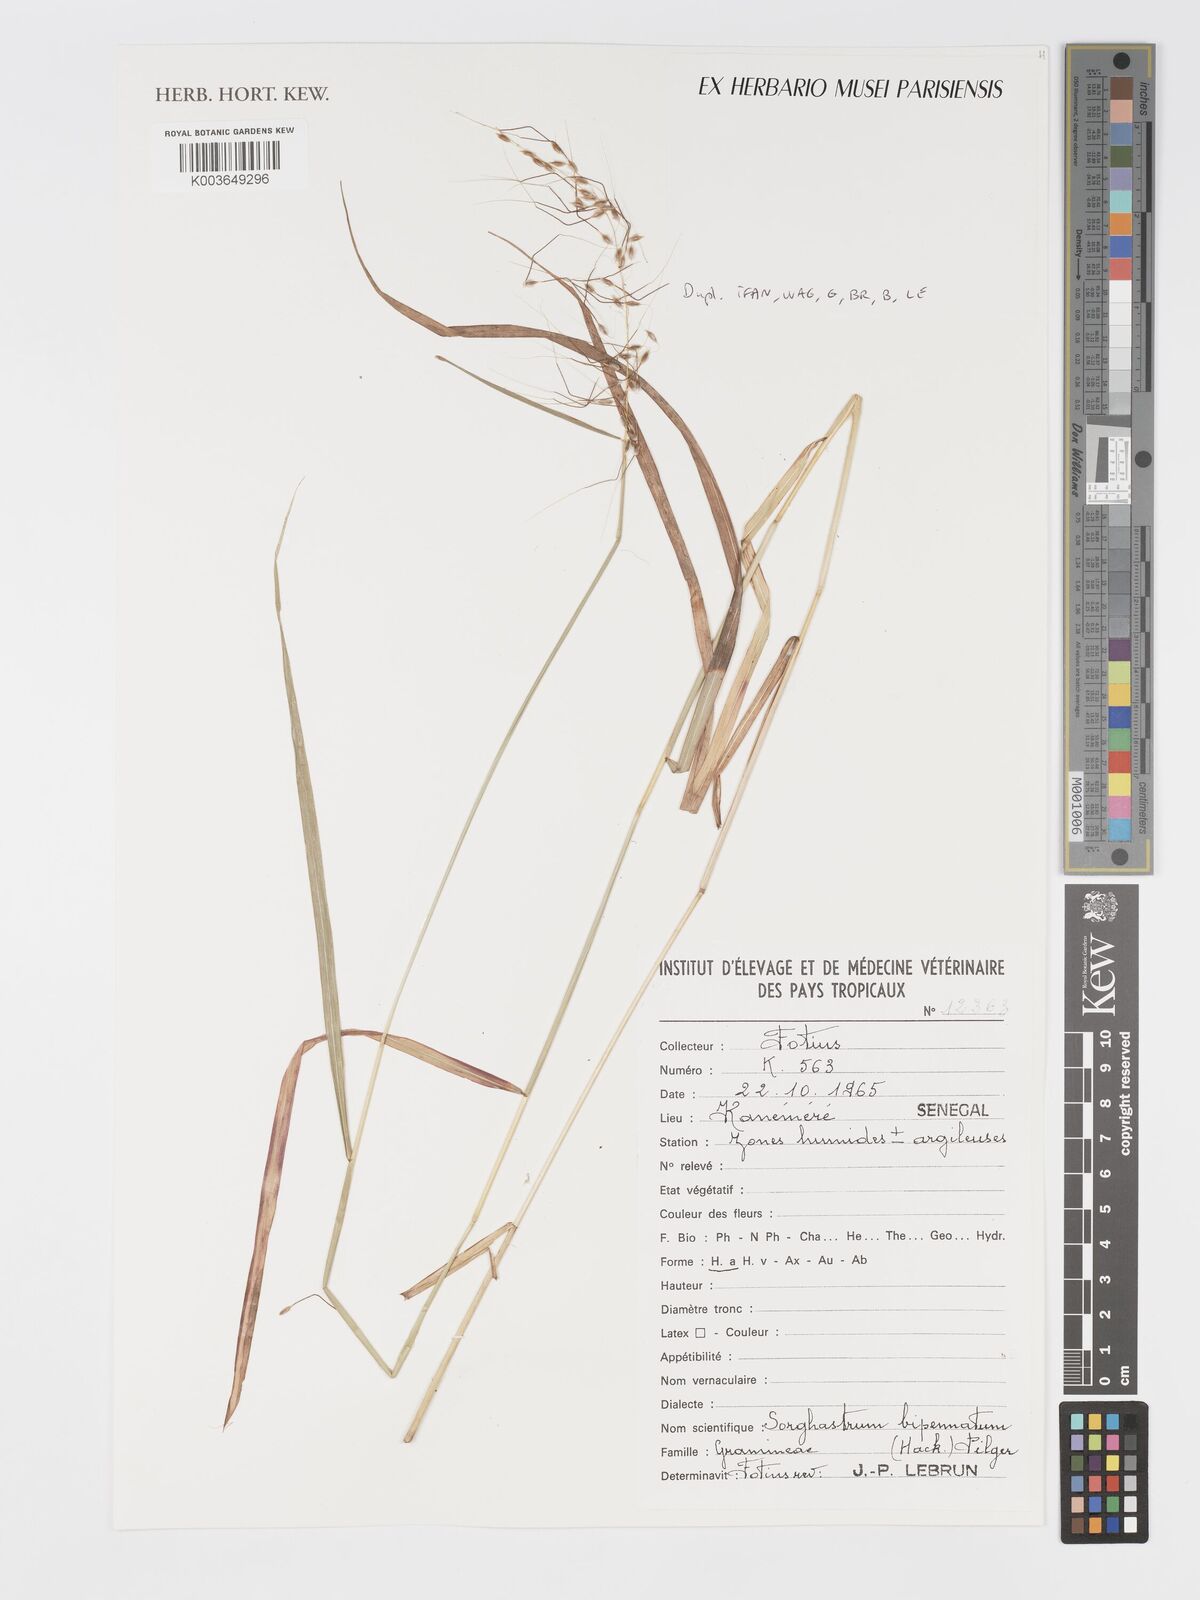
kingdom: Plantae
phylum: Tracheophyta
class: Liliopsida
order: Poales
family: Poaceae
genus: Sorghastrum
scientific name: Sorghastrum incompletum
